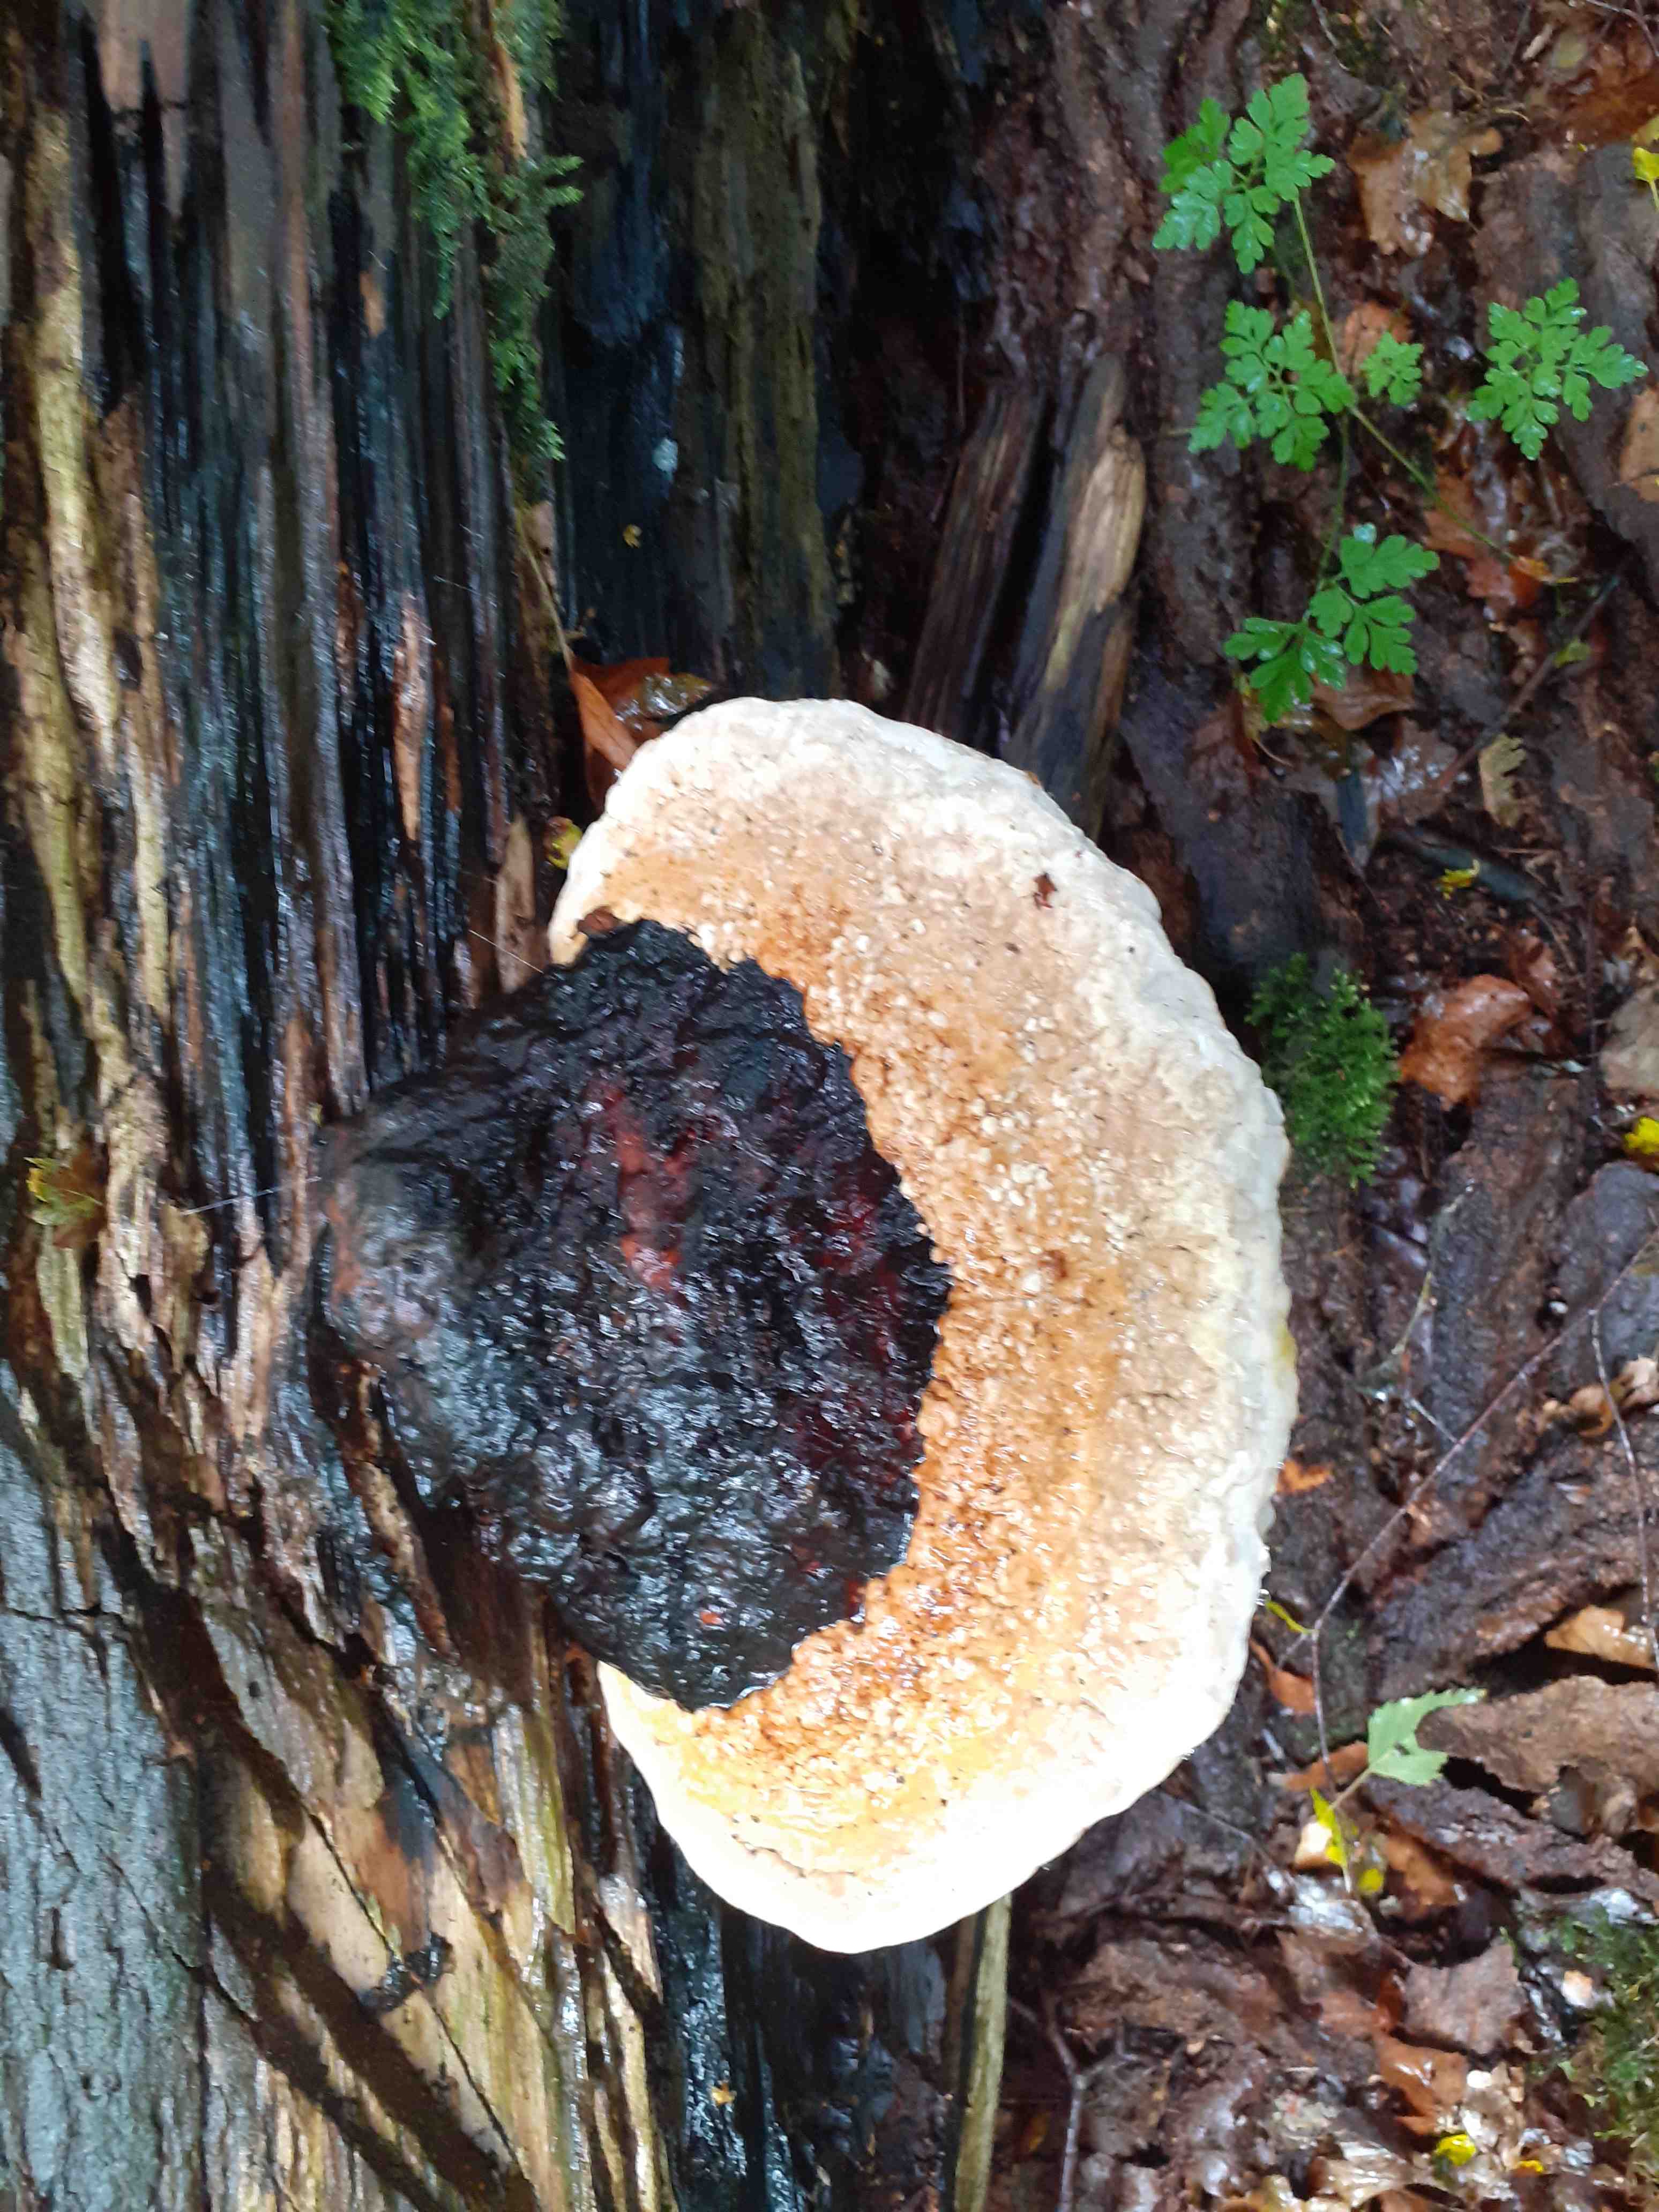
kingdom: Fungi
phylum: Basidiomycota
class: Agaricomycetes
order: Polyporales
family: Fomitopsidaceae
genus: Fomitopsis
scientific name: Fomitopsis pinicola
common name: randbæltet hovporesvamp
